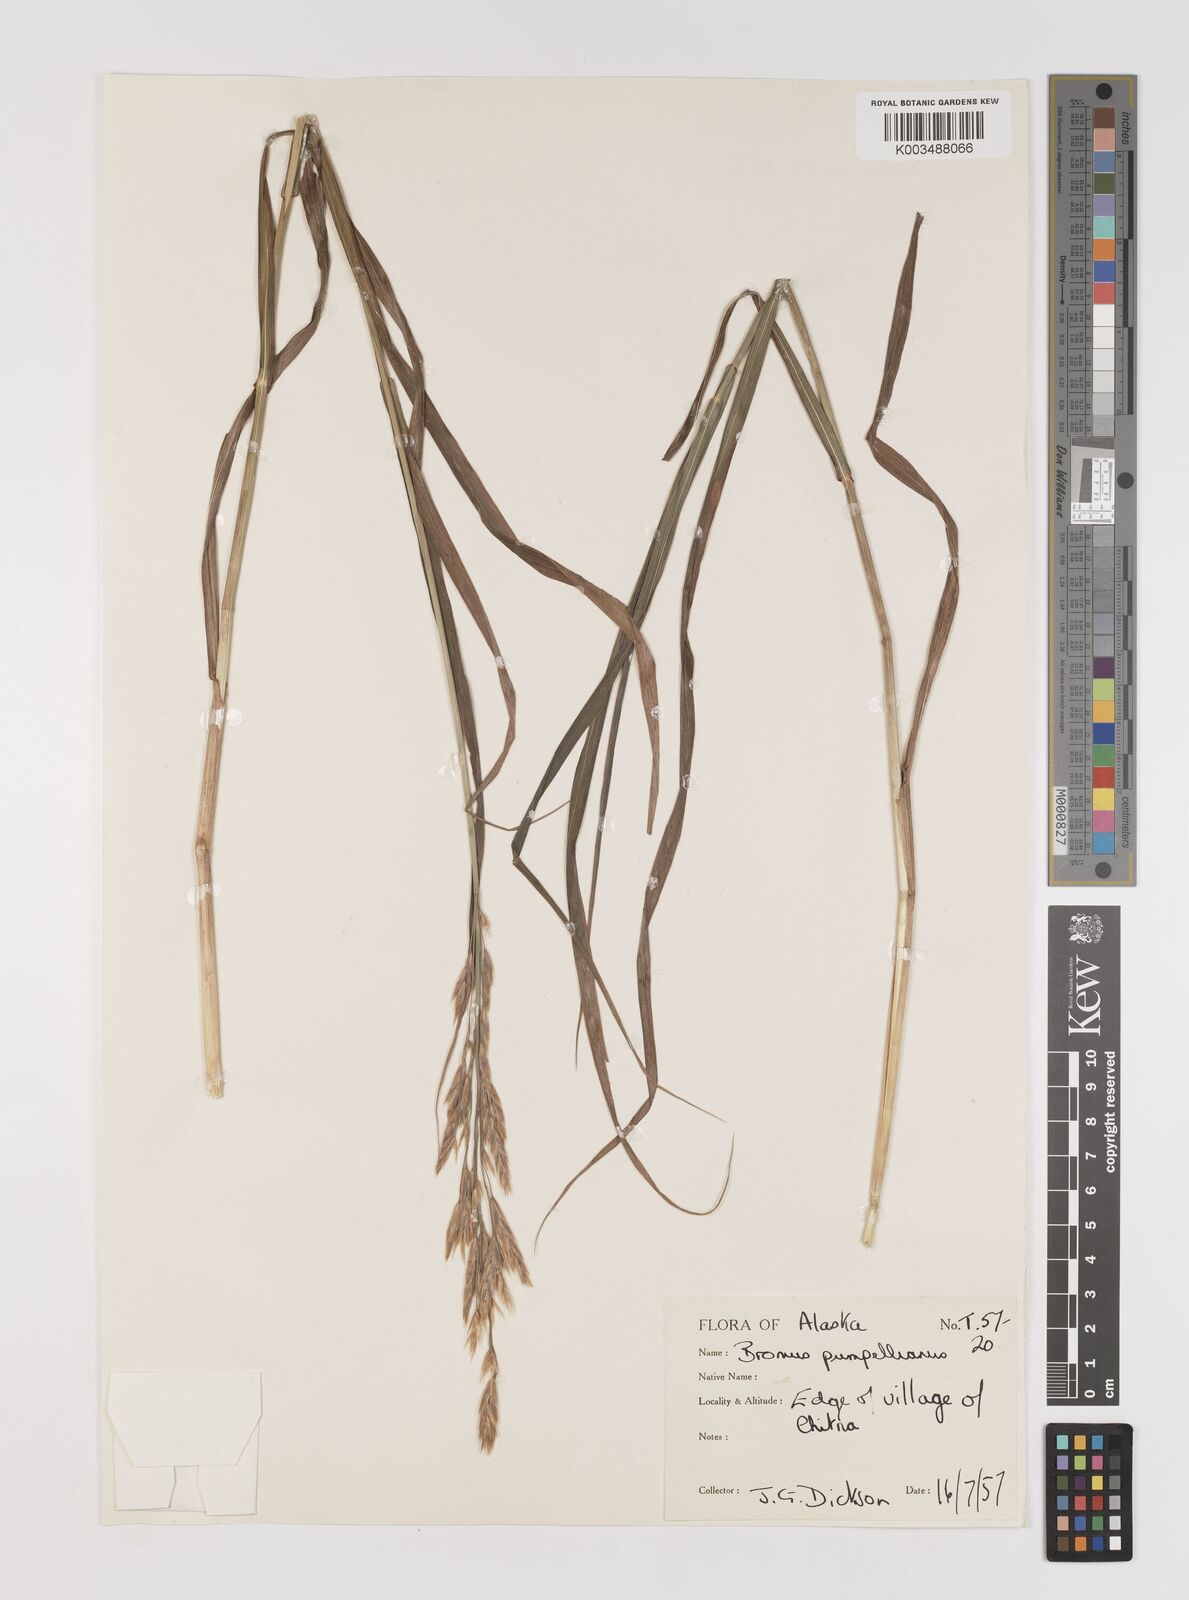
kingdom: Plantae
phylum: Tracheophyta
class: Liliopsida
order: Poales
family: Poaceae
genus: Bromus
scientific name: Bromus pumpellianus
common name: Pumpelly's brome
